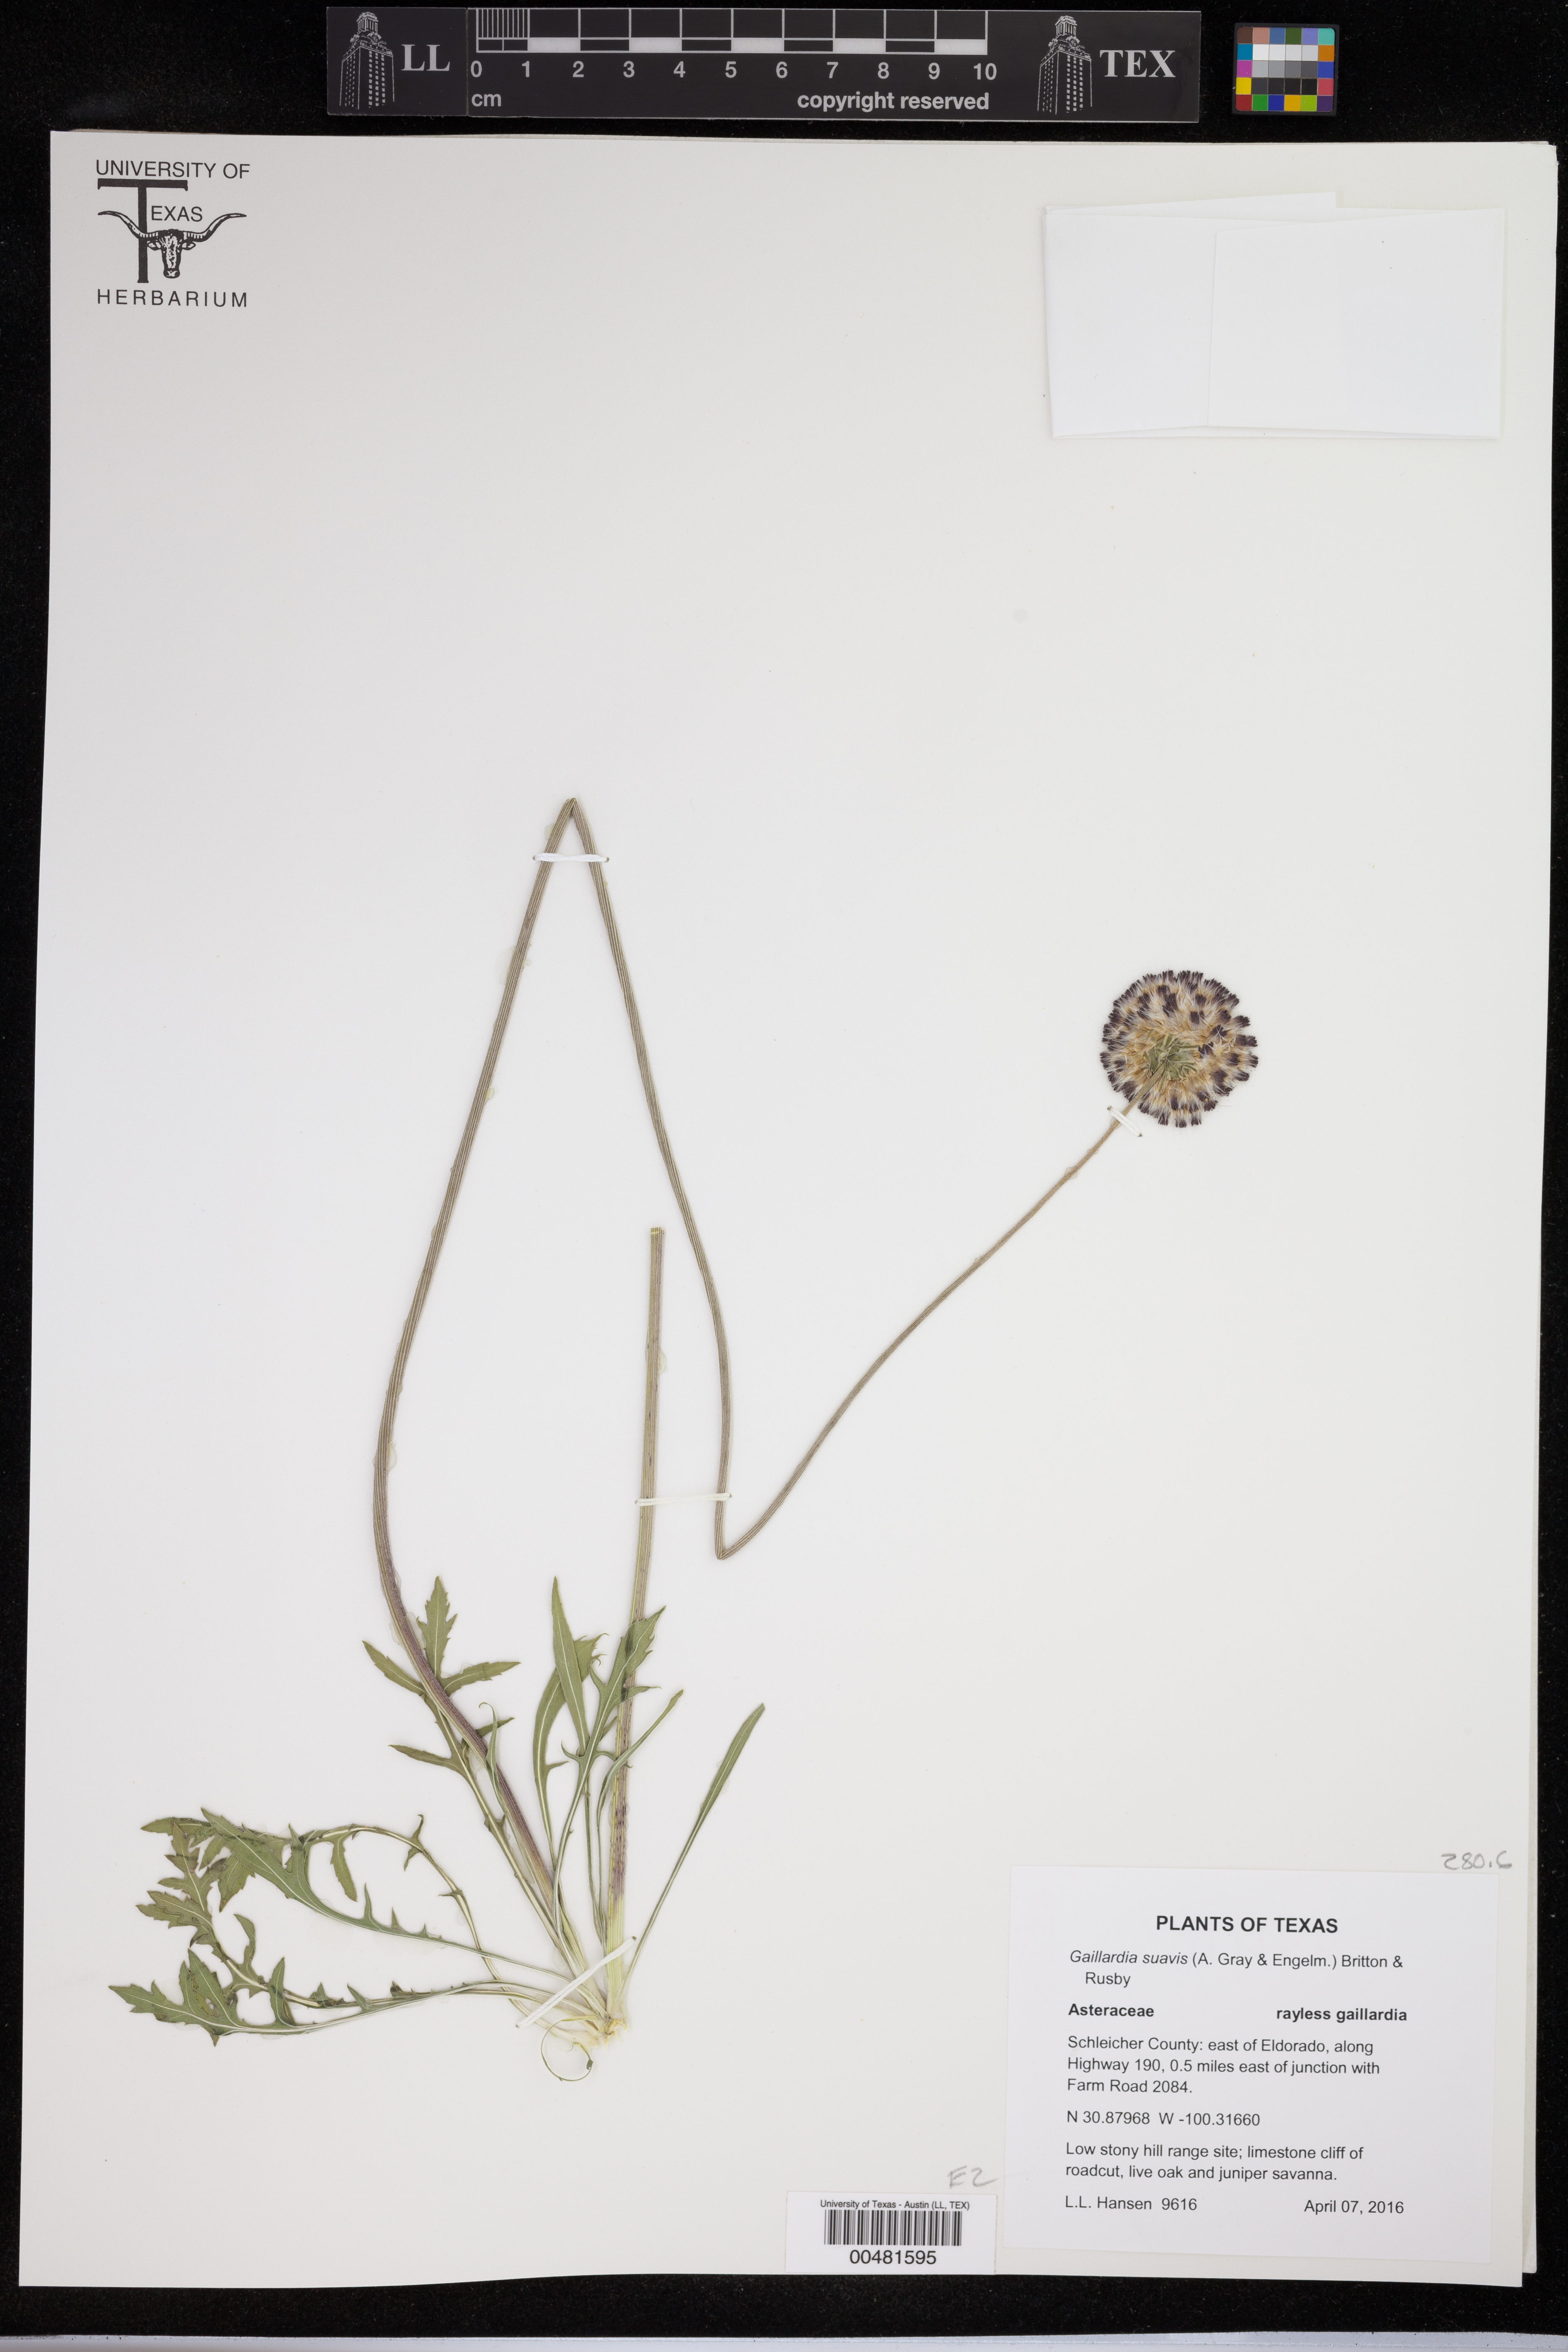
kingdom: Plantae
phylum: Tracheophyta
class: Magnoliopsida
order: Asterales
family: Asteraceae
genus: Gaillardia
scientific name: Gaillardia suavis
